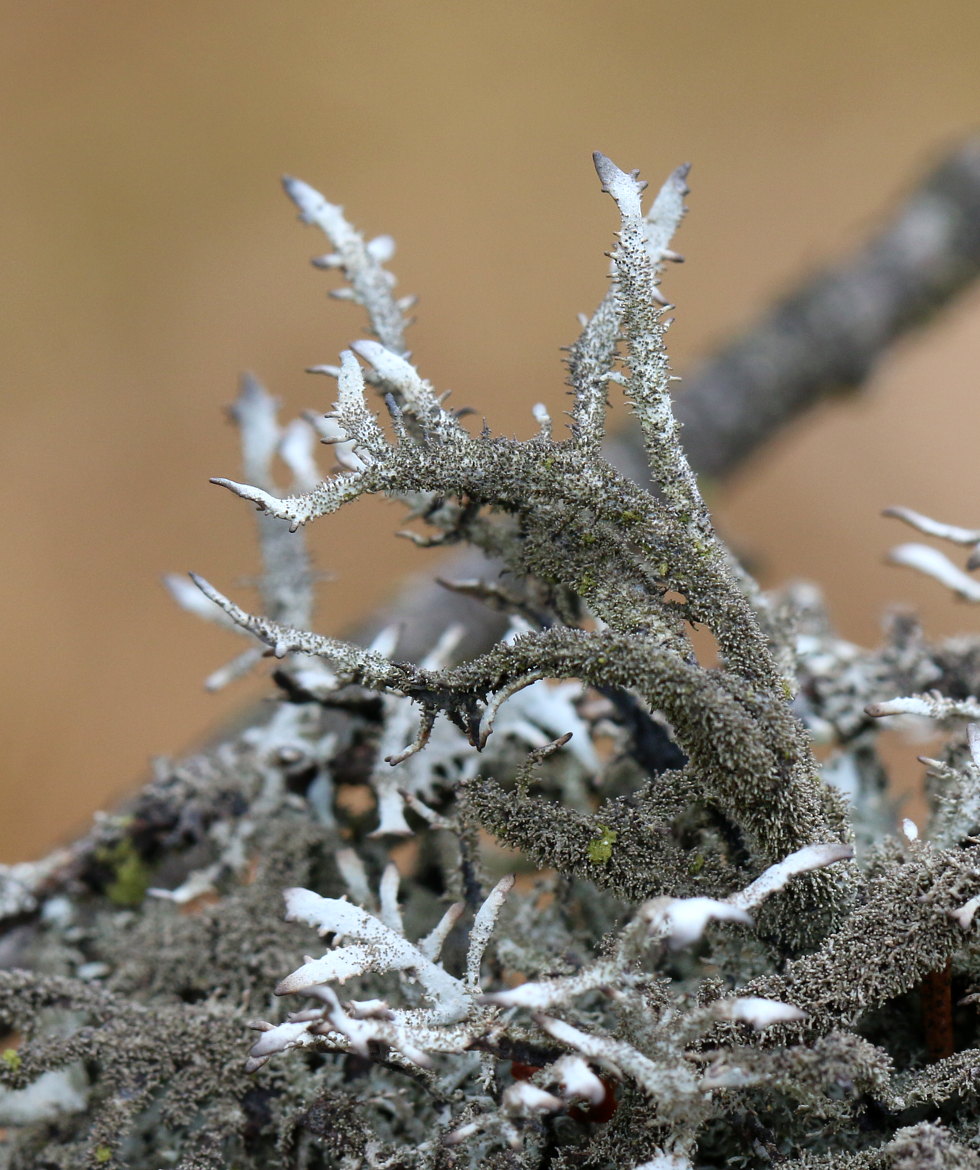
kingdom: Fungi
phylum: Ascomycota
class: Lecanoromycetes
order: Lecanorales
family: Parmeliaceae
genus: Pseudevernia
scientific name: Pseudevernia furfuracea
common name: grå fyrrelav
